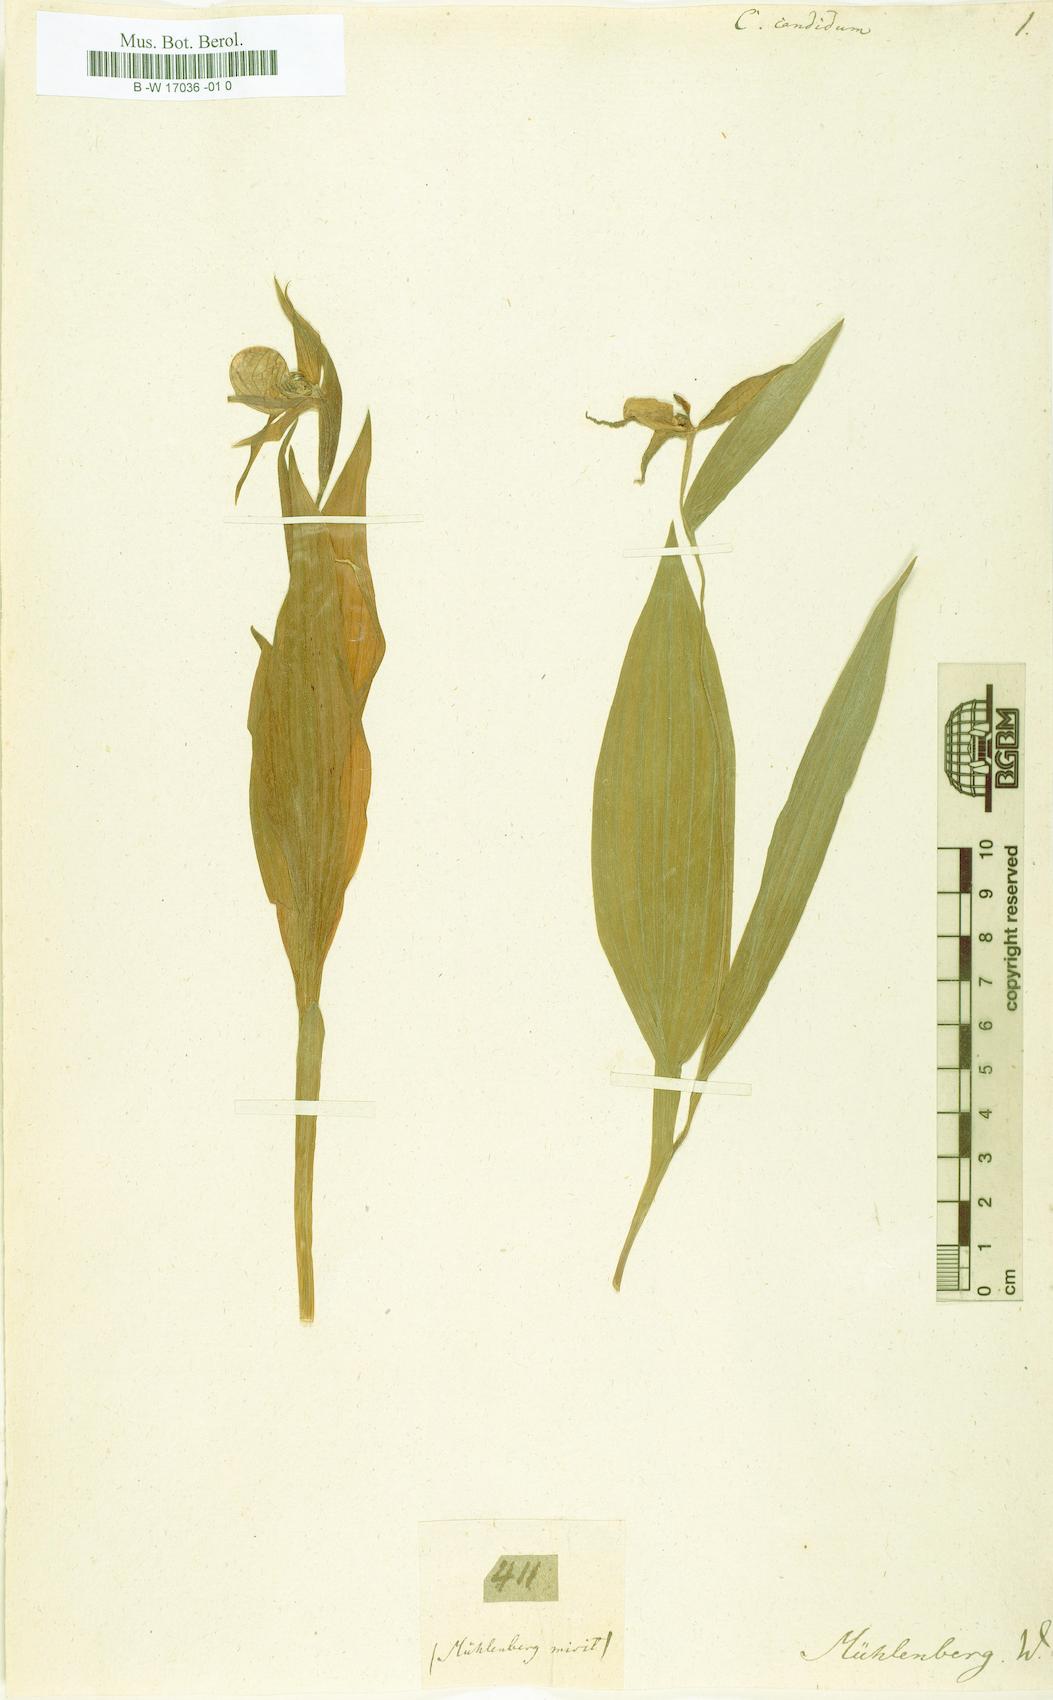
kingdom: Plantae
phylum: Tracheophyta
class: Liliopsida
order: Asparagales
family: Orchidaceae
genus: Cypripedium
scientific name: Cypripedium candidum
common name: White lady's-slipper
